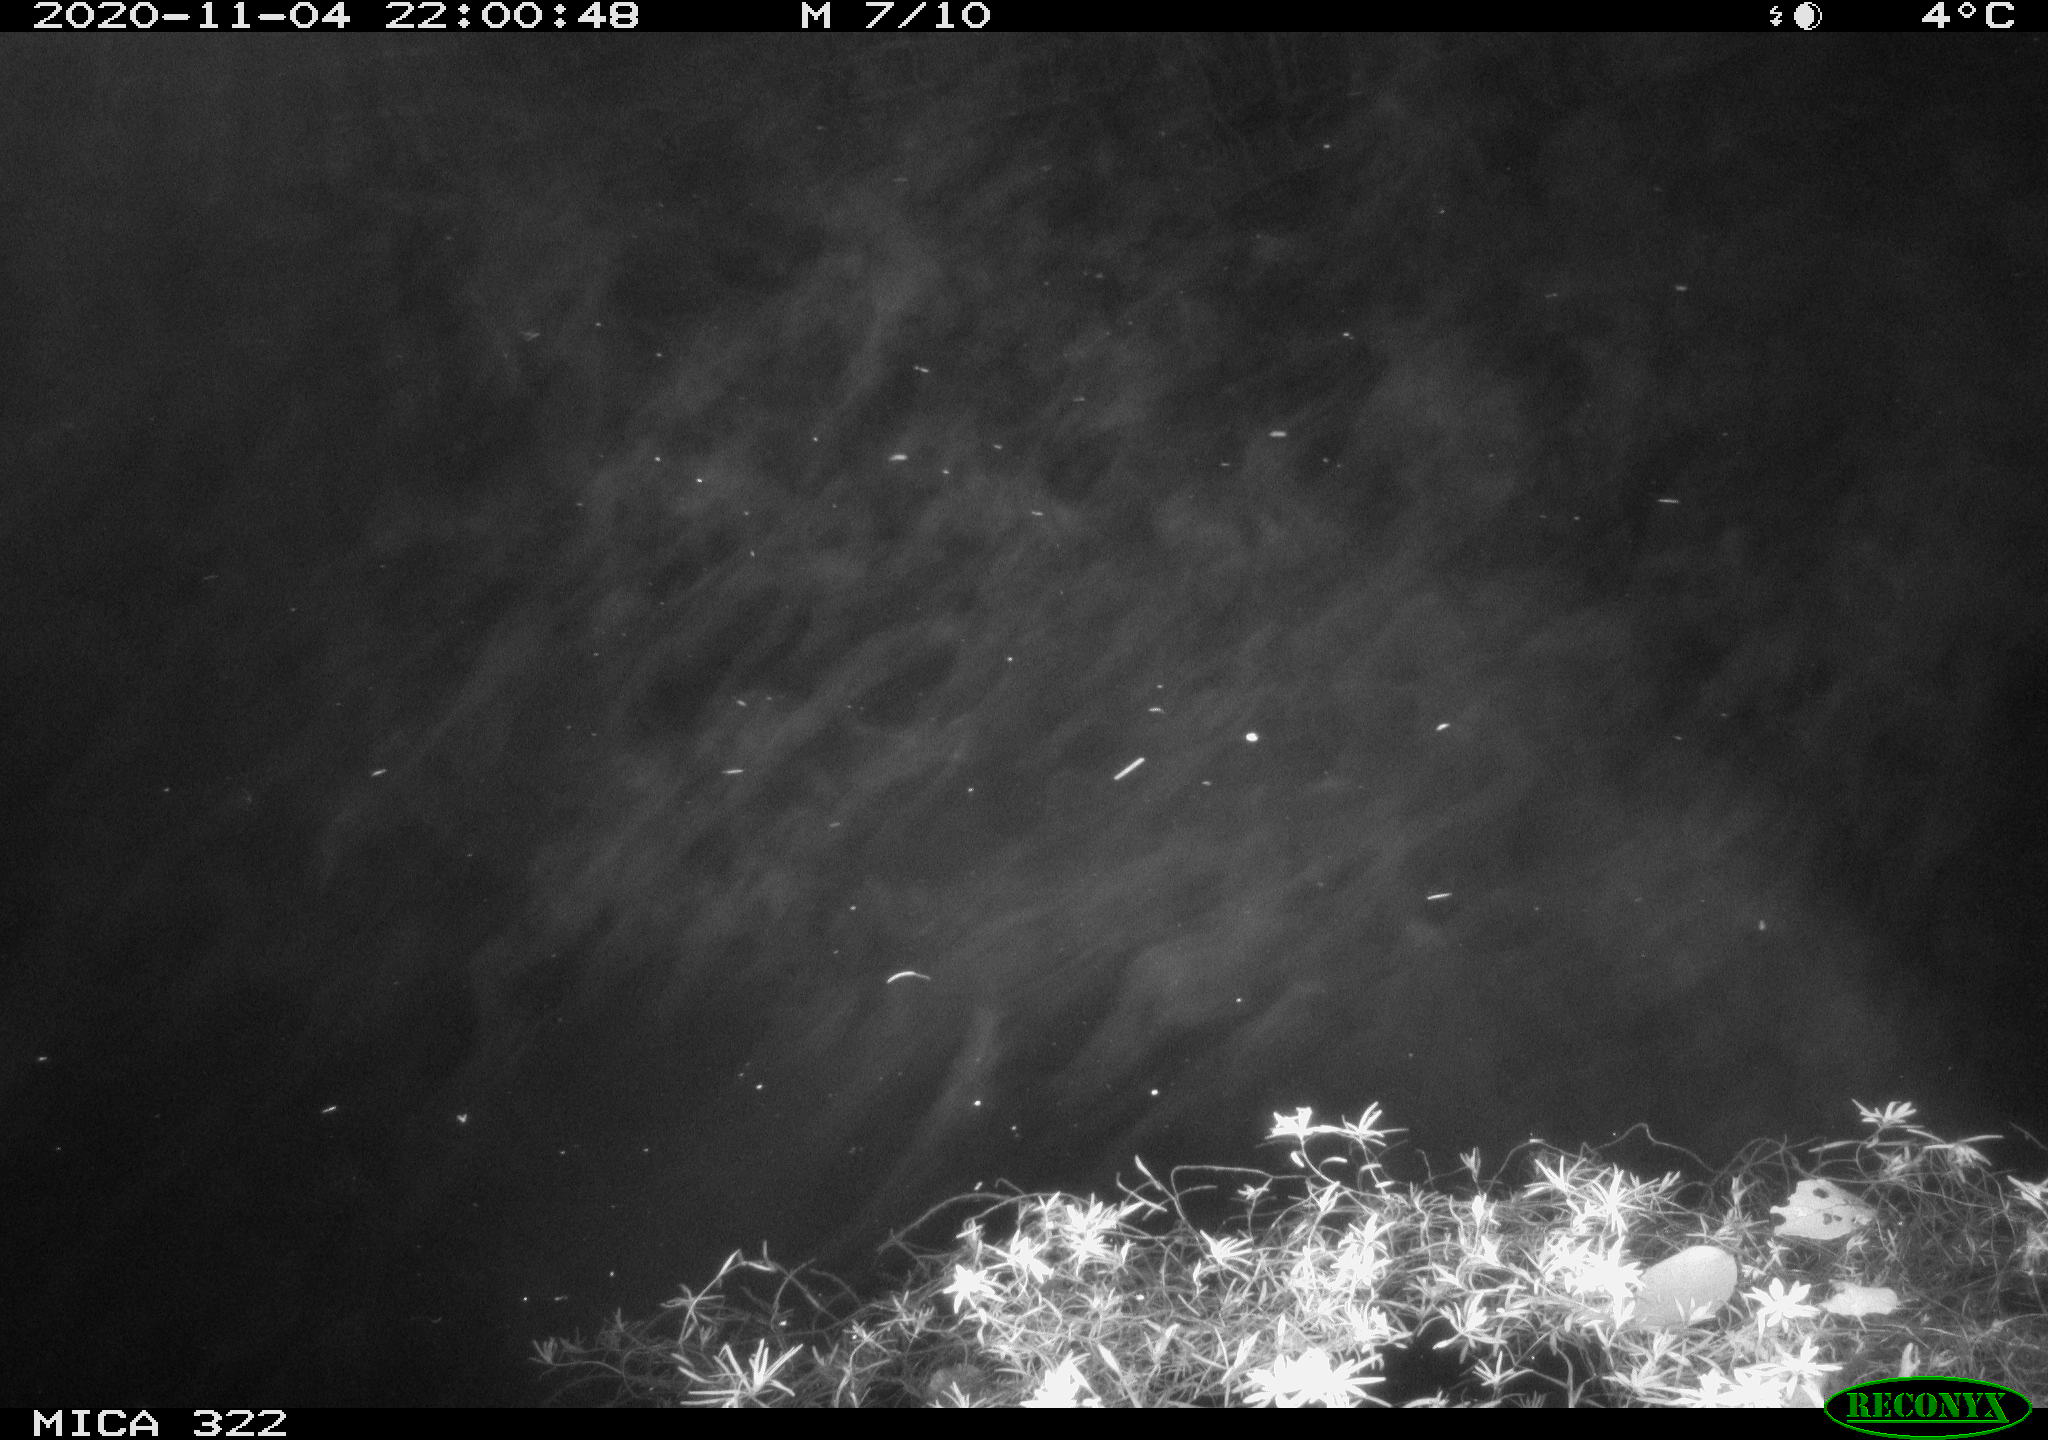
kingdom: Animalia
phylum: Chordata
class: Mammalia
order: Rodentia
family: Muridae
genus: Rattus
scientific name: Rattus norvegicus
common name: Brown rat
